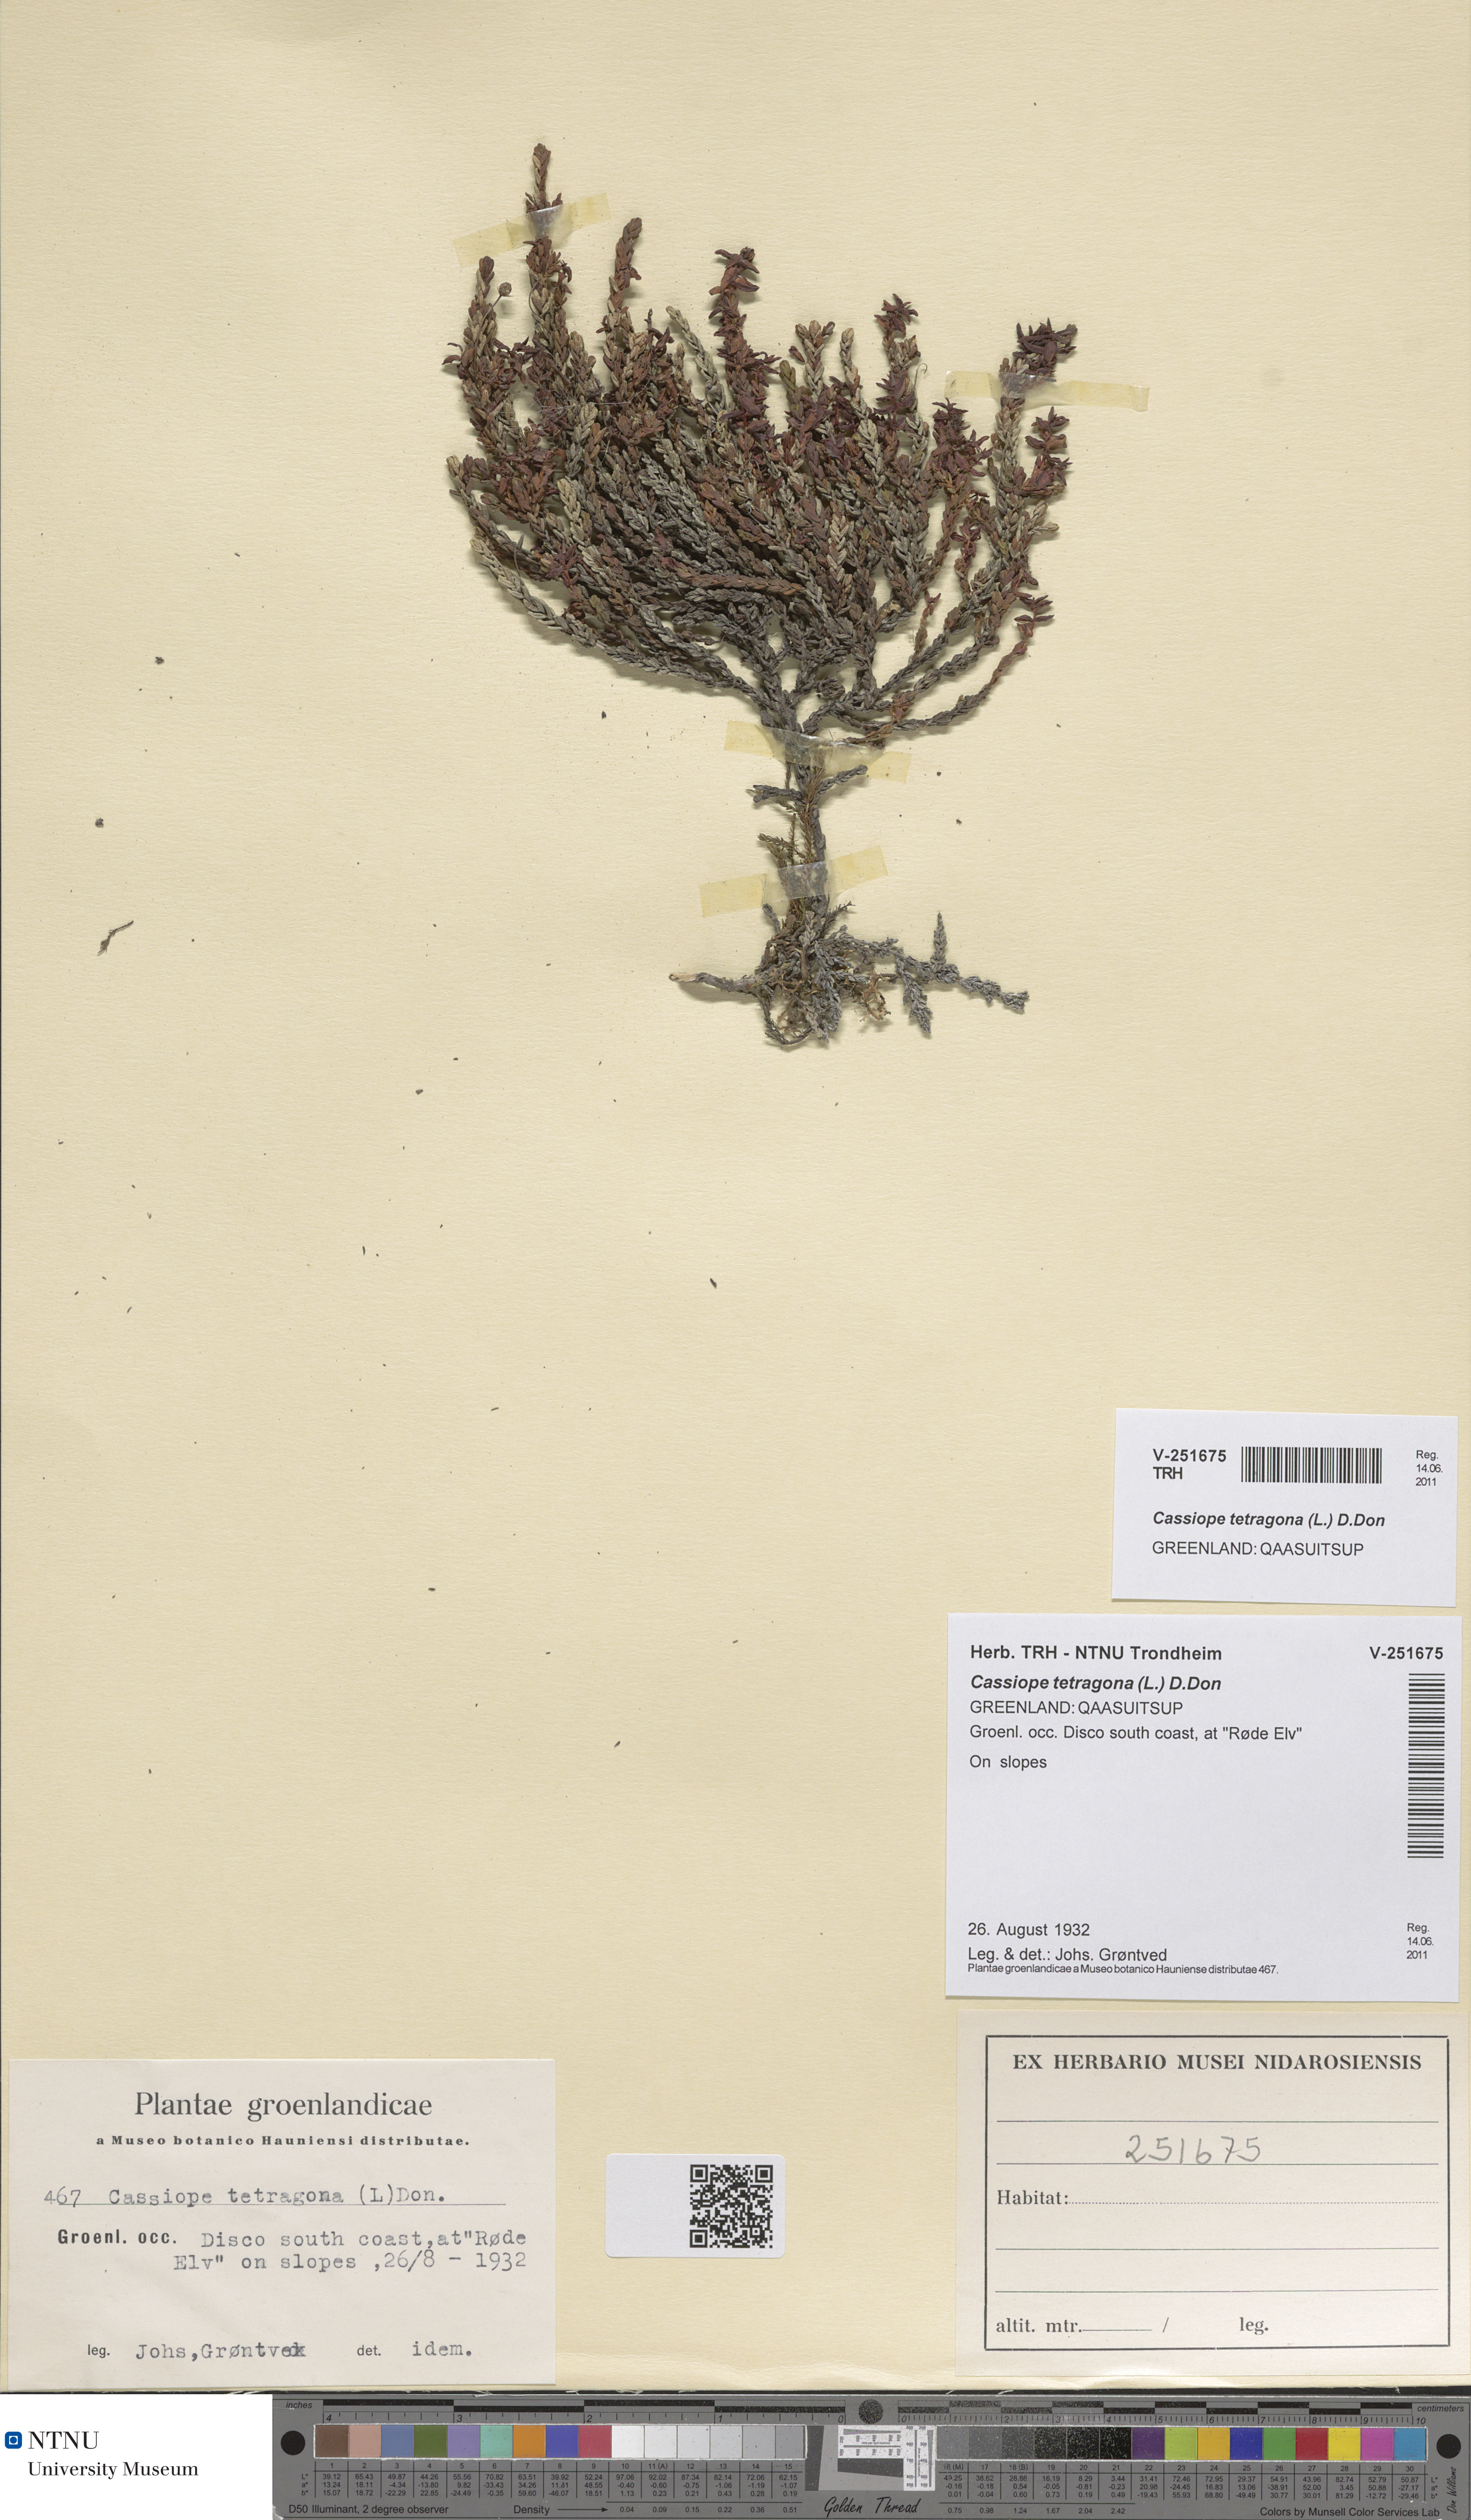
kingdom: Plantae
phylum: Tracheophyta
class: Magnoliopsida
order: Ericales
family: Ericaceae
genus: Cassiope
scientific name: Cassiope tetragona
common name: Arctic bell heather
